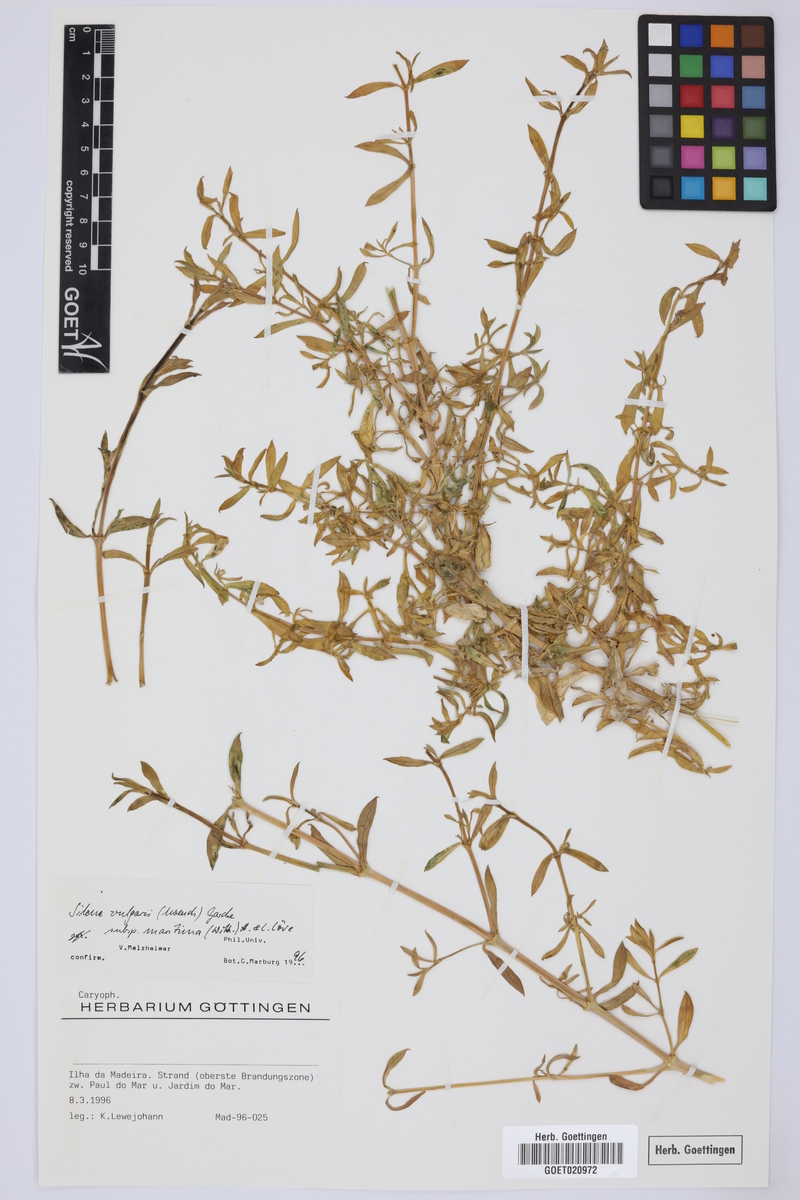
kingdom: Plantae
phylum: Tracheophyta
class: Magnoliopsida
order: Caryophyllales
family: Caryophyllaceae
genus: Silene
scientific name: Silene uniflora
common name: Sea campion
